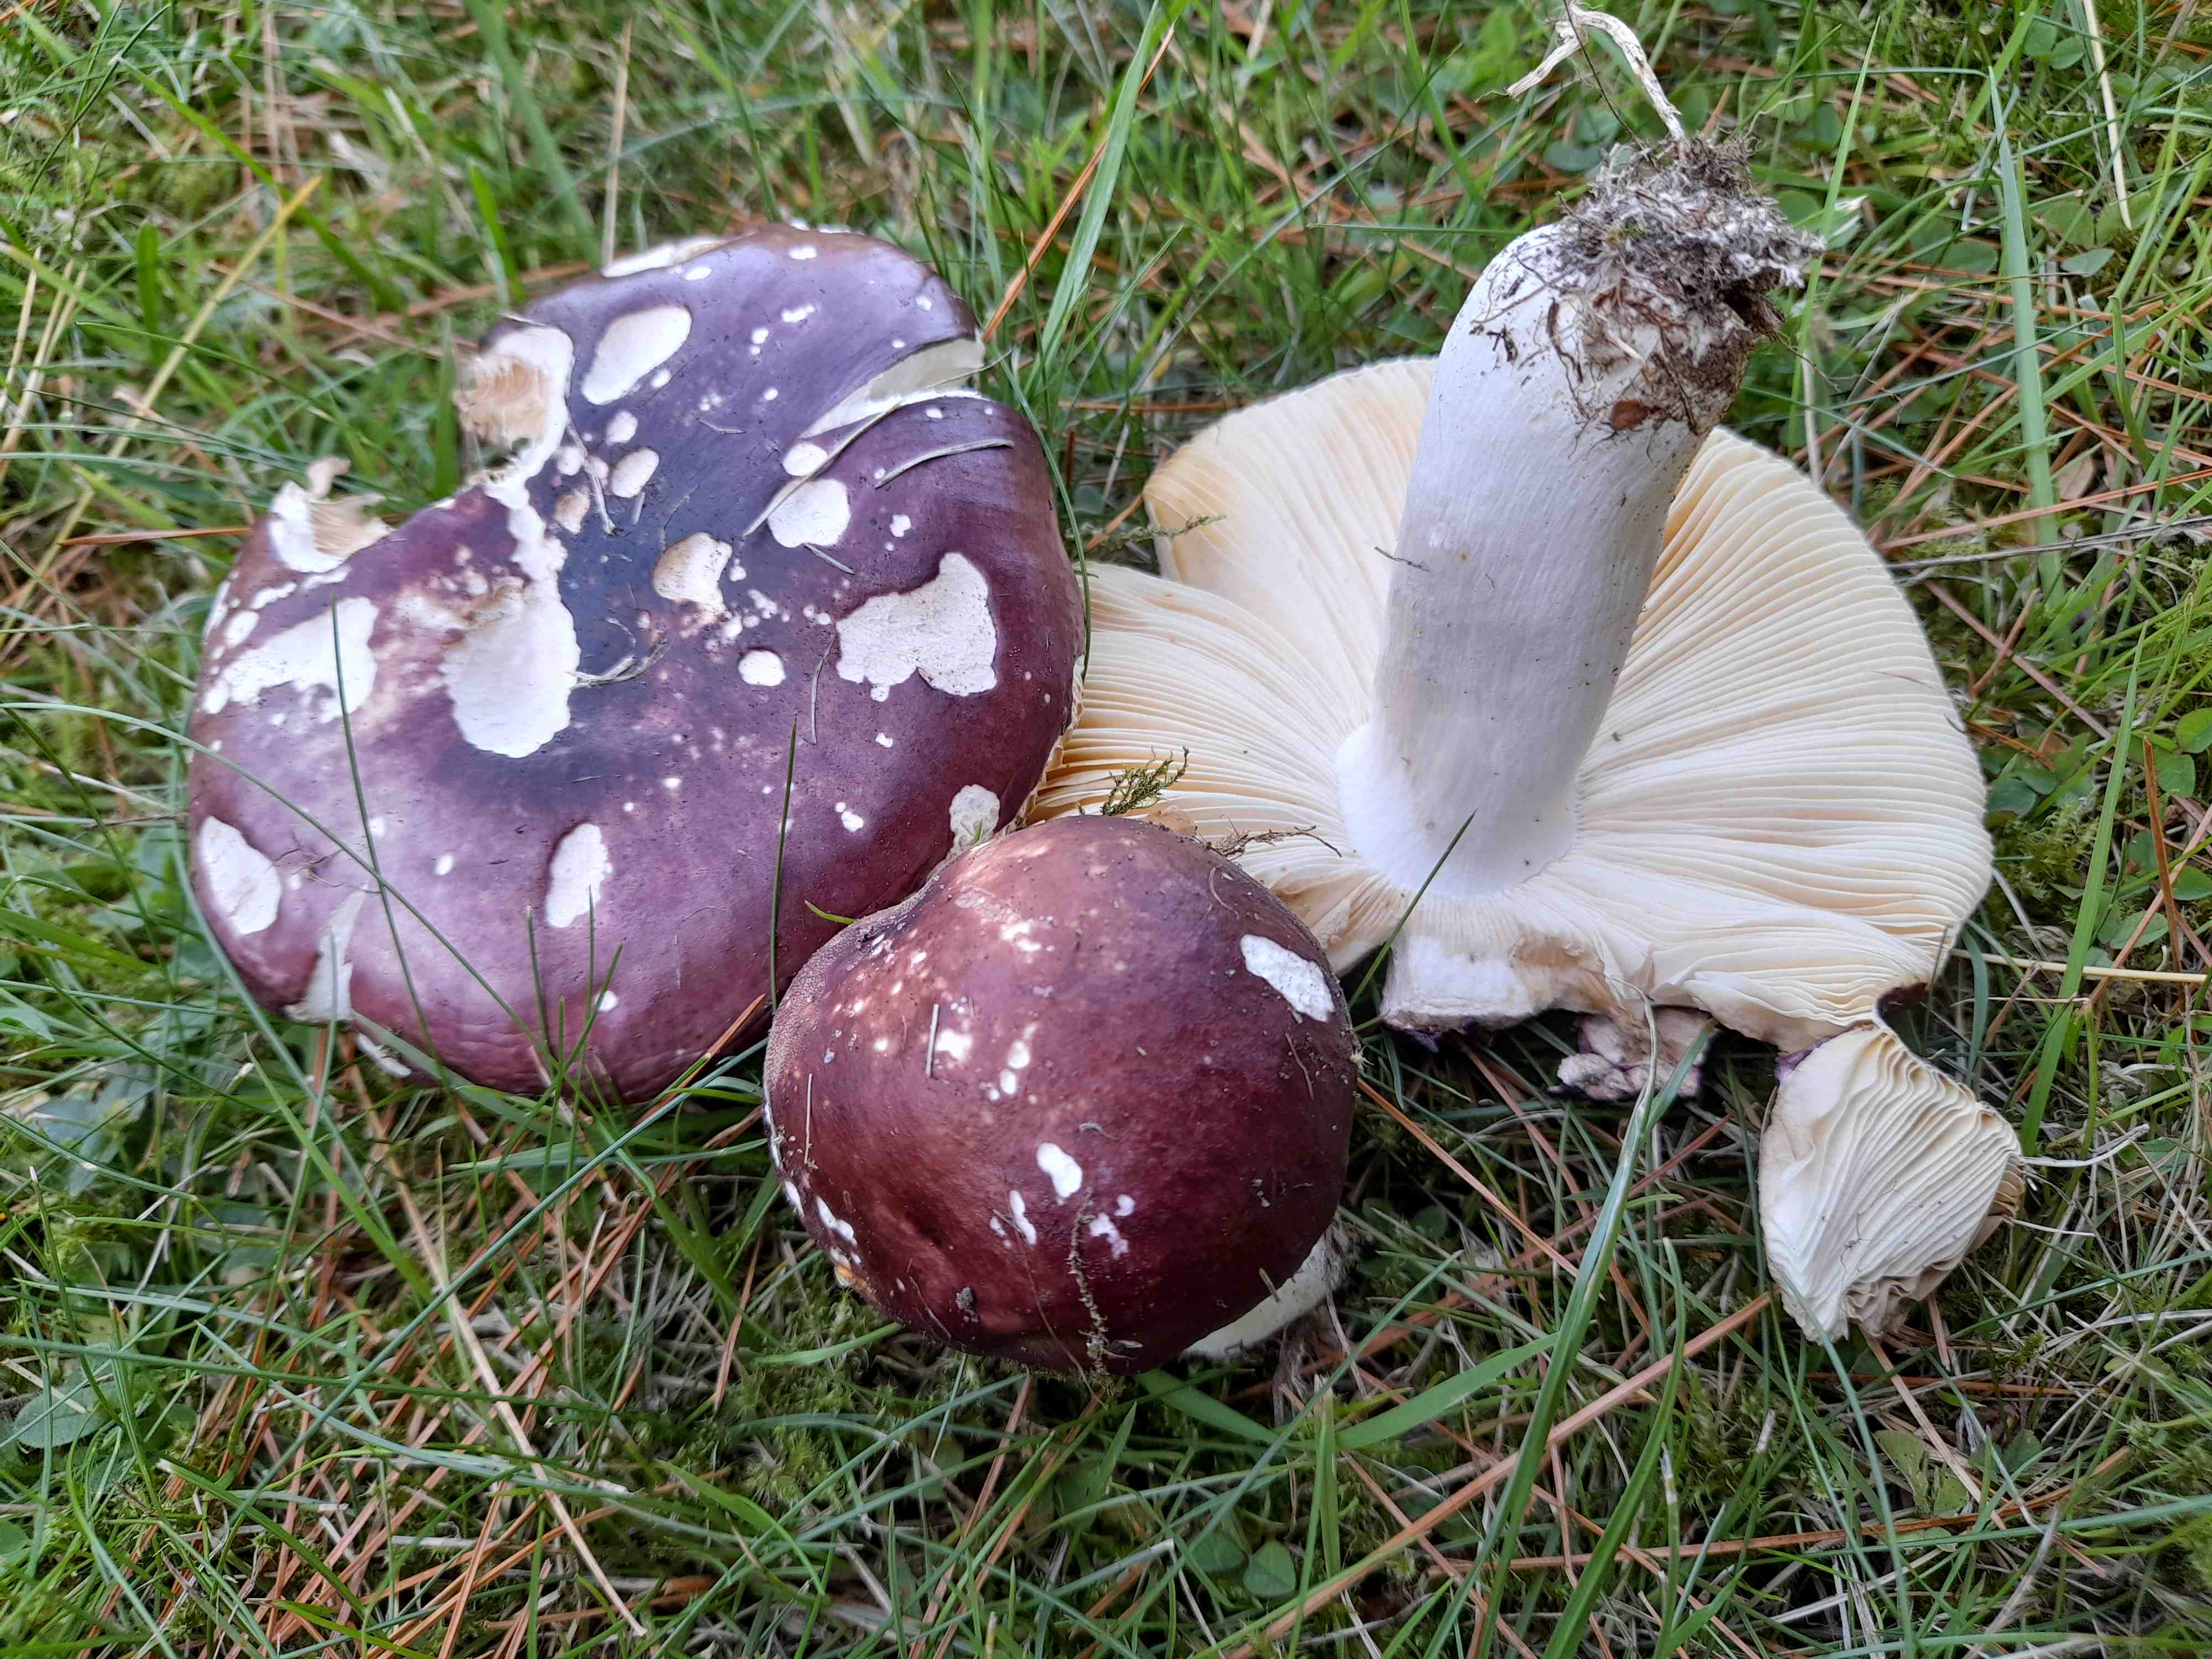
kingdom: Fungi
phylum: Basidiomycota
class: Agaricomycetes
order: Russulales
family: Russulaceae
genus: Russula
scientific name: Russula
